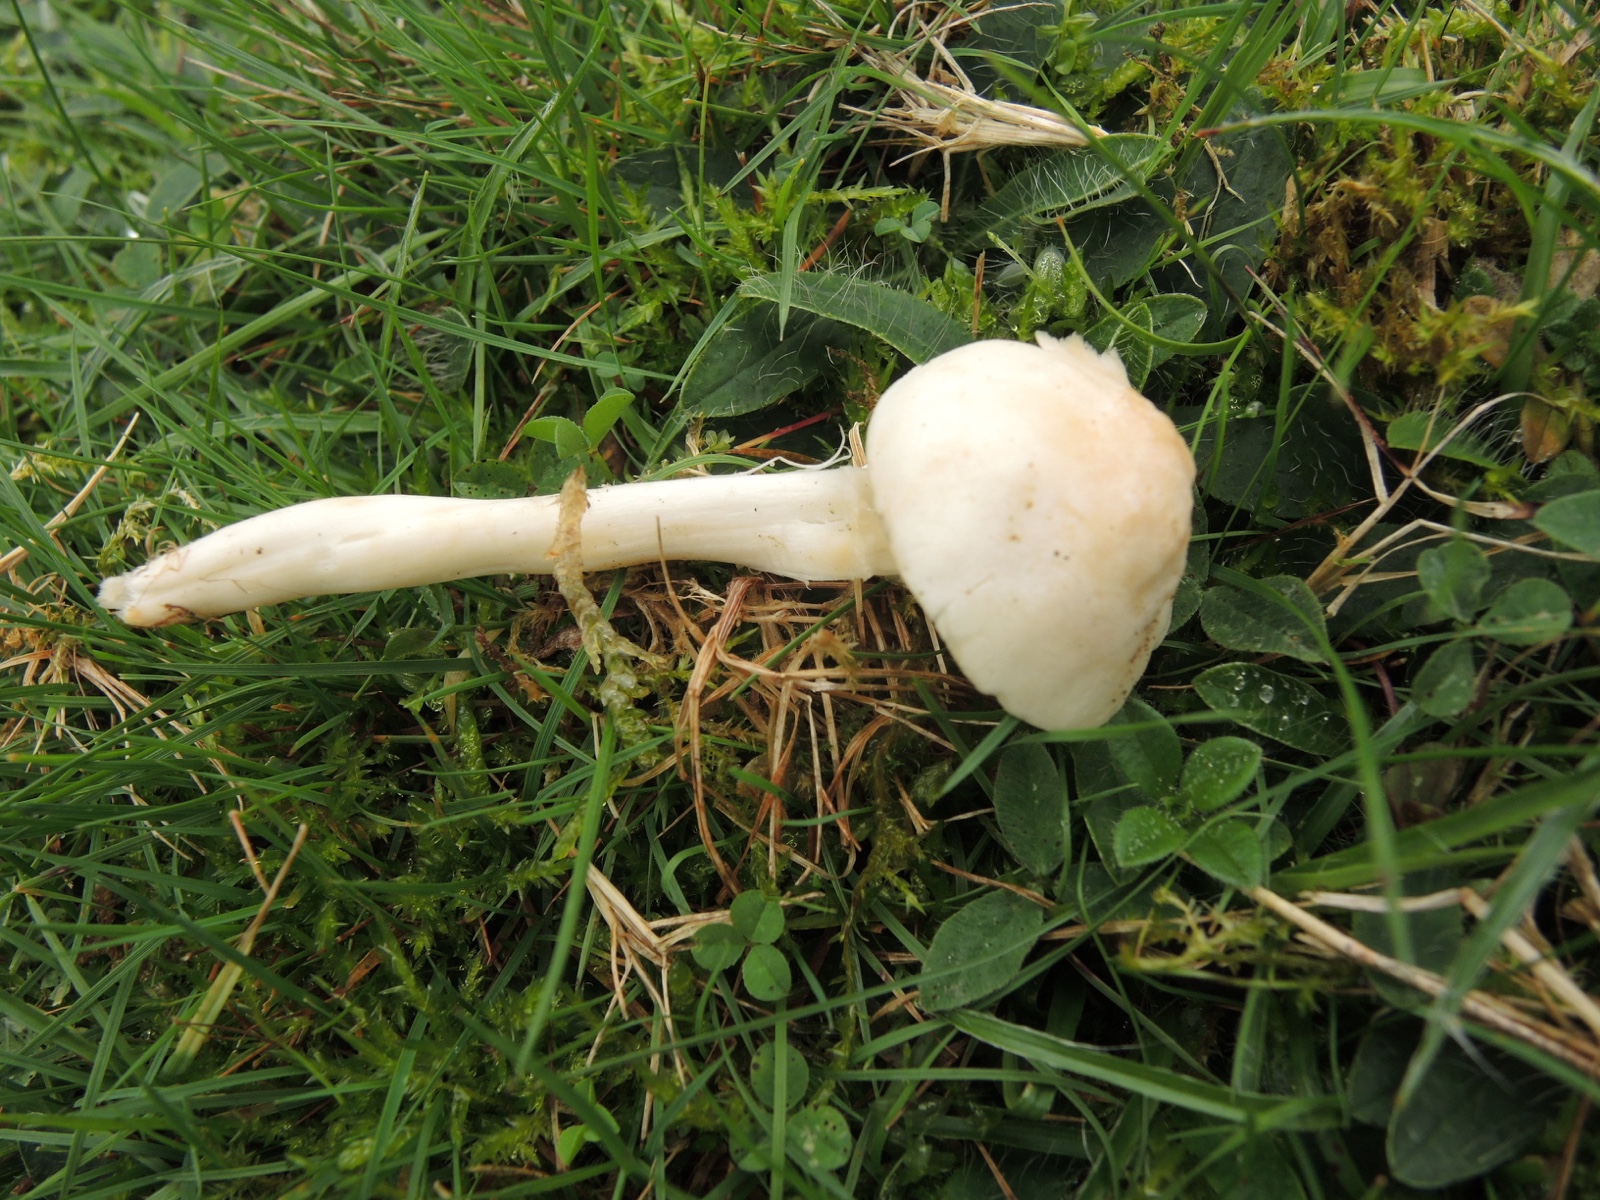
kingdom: Fungi
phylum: Basidiomycota
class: Agaricomycetes
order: Agaricales
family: Hygrophoraceae
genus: Cuphophyllus
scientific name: Cuphophyllus pratensis
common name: bleg vokshat
